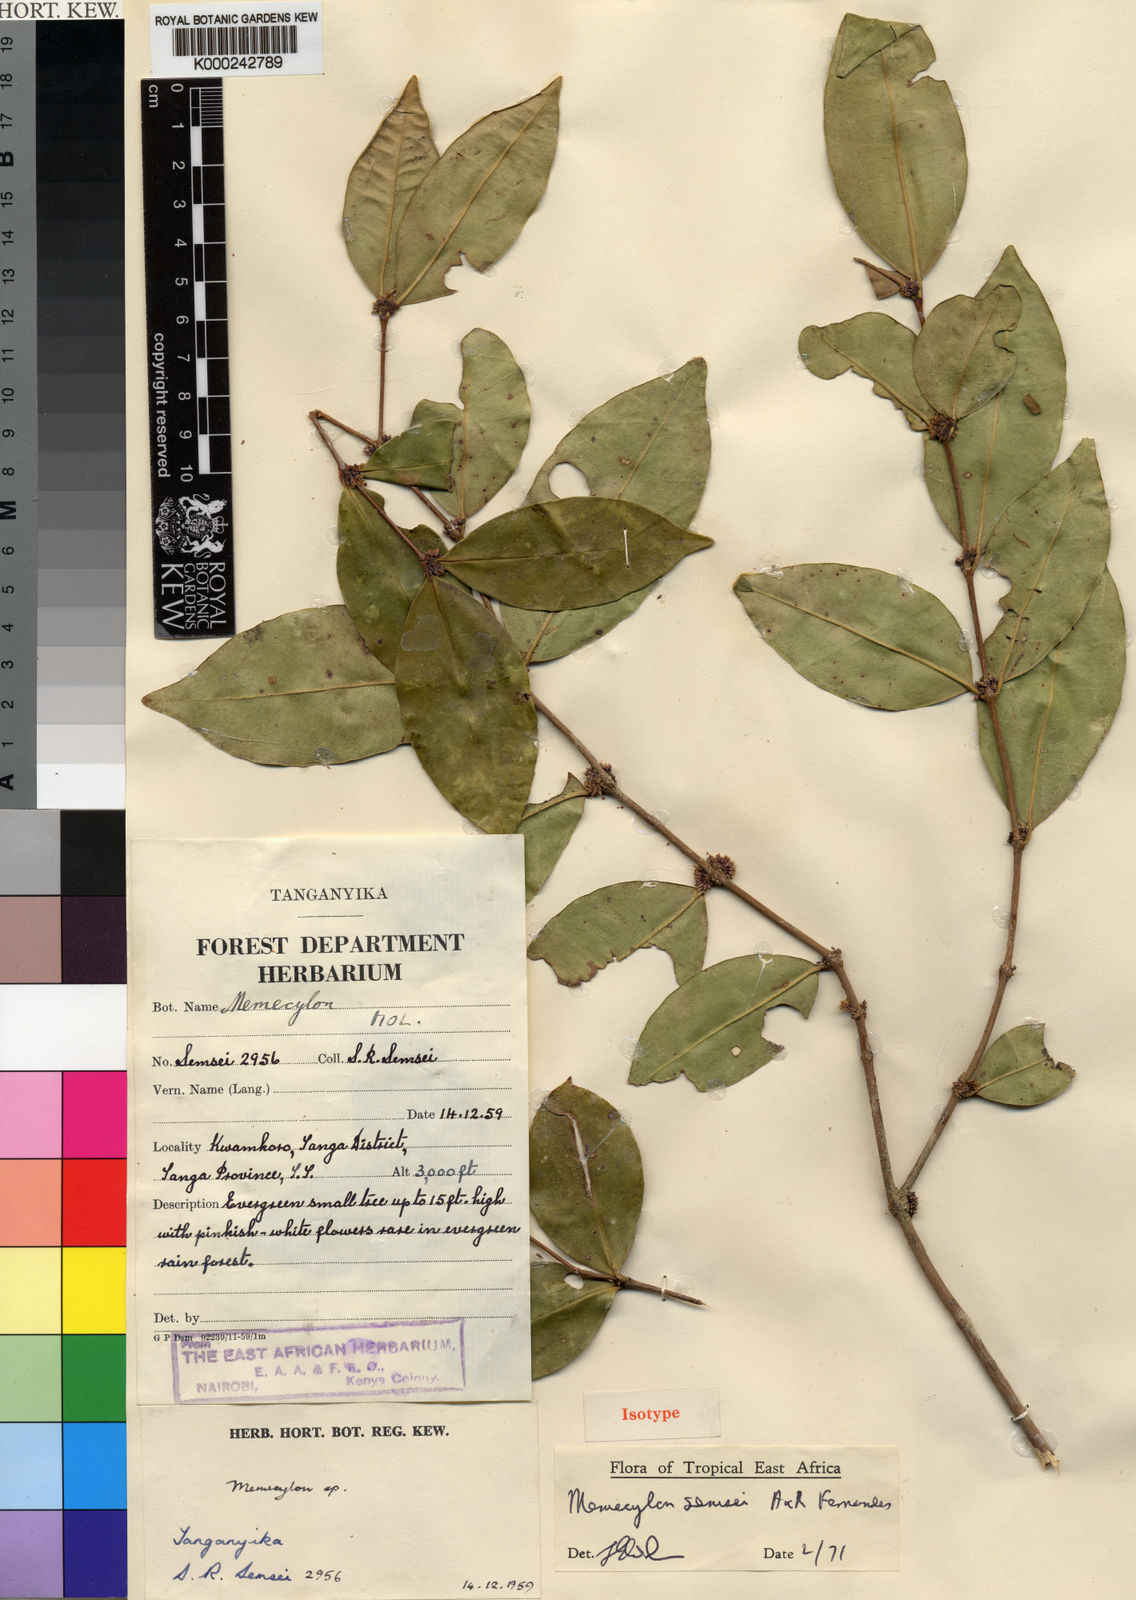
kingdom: Plantae
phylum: Tracheophyta
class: Magnoliopsida
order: Myrtales
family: Melastomataceae
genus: Memecylon
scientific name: Memecylon semsei
